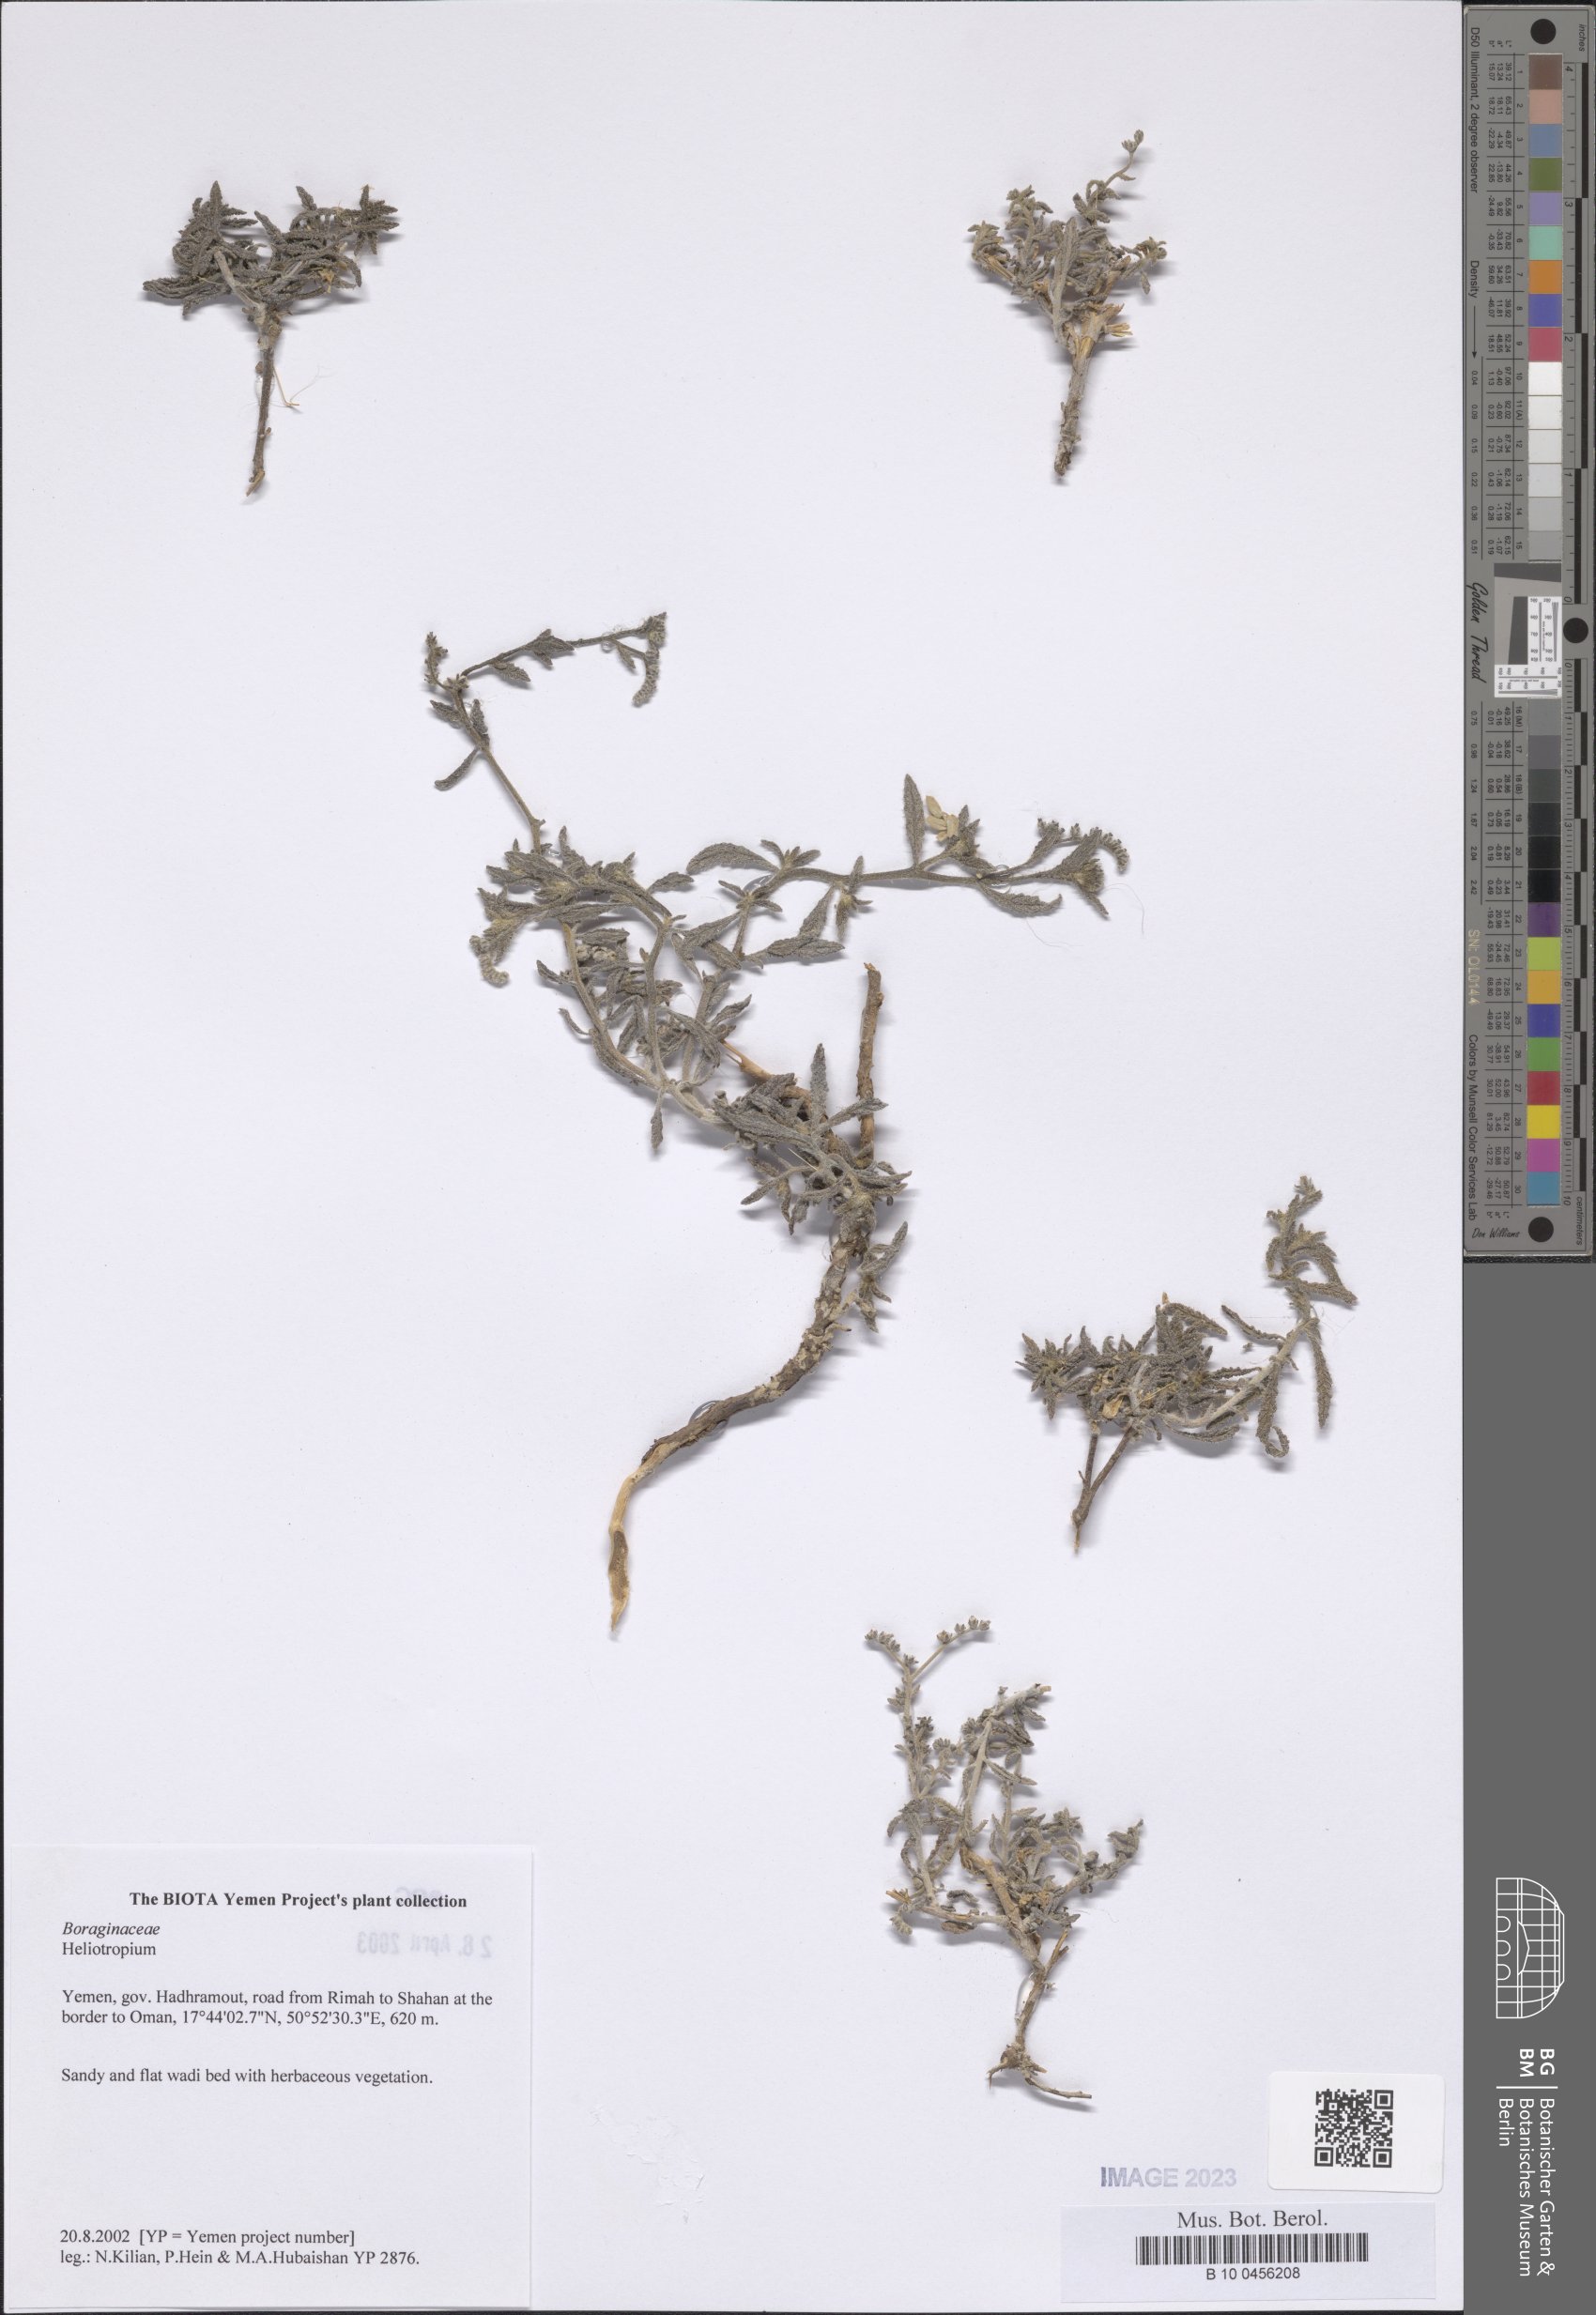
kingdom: Plantae
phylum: Tracheophyta
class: Magnoliopsida
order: Boraginales
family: Heliotropiaceae
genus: Heliotropium
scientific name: Heliotropium
